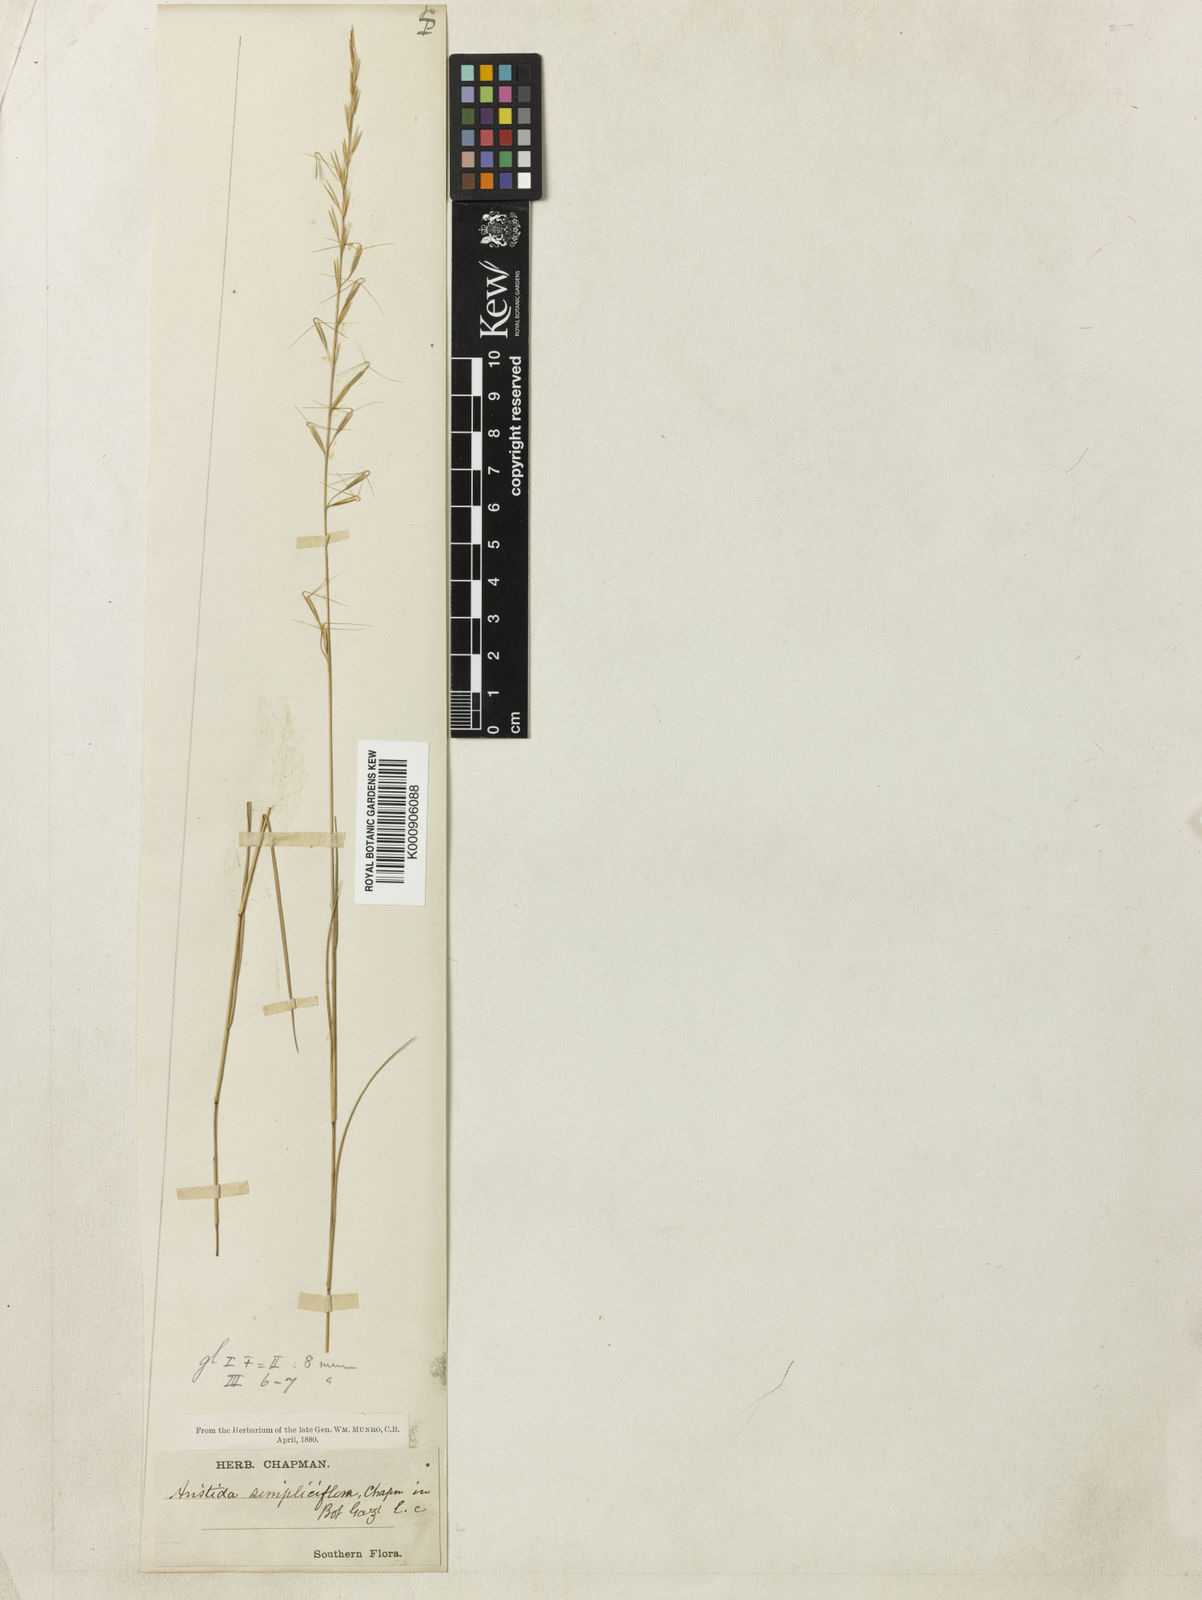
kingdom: Plantae
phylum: Tracheophyta
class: Liliopsida
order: Poales
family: Poaceae
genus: Aristida
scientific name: Aristida simpliciflora
